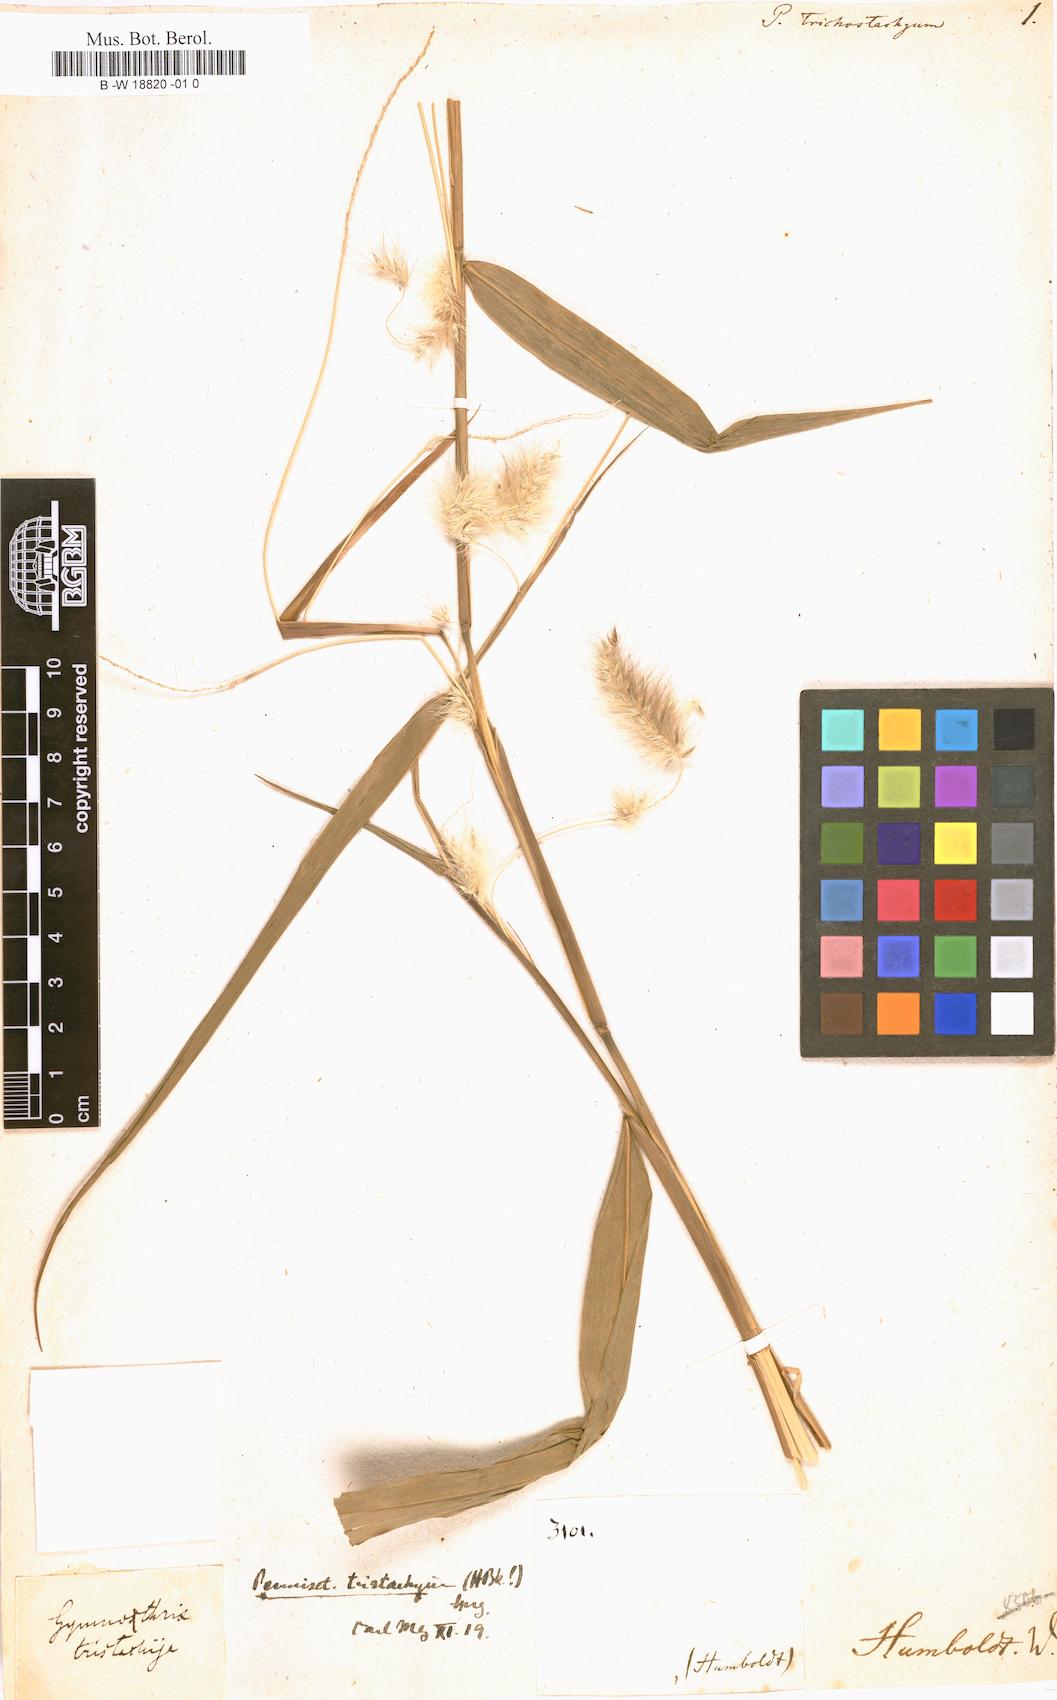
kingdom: Plantae
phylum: Tracheophyta
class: Liliopsida
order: Poales
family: Poaceae
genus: Digitaria
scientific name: Digitaria sanguinalis
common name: Hairy crabgrass
